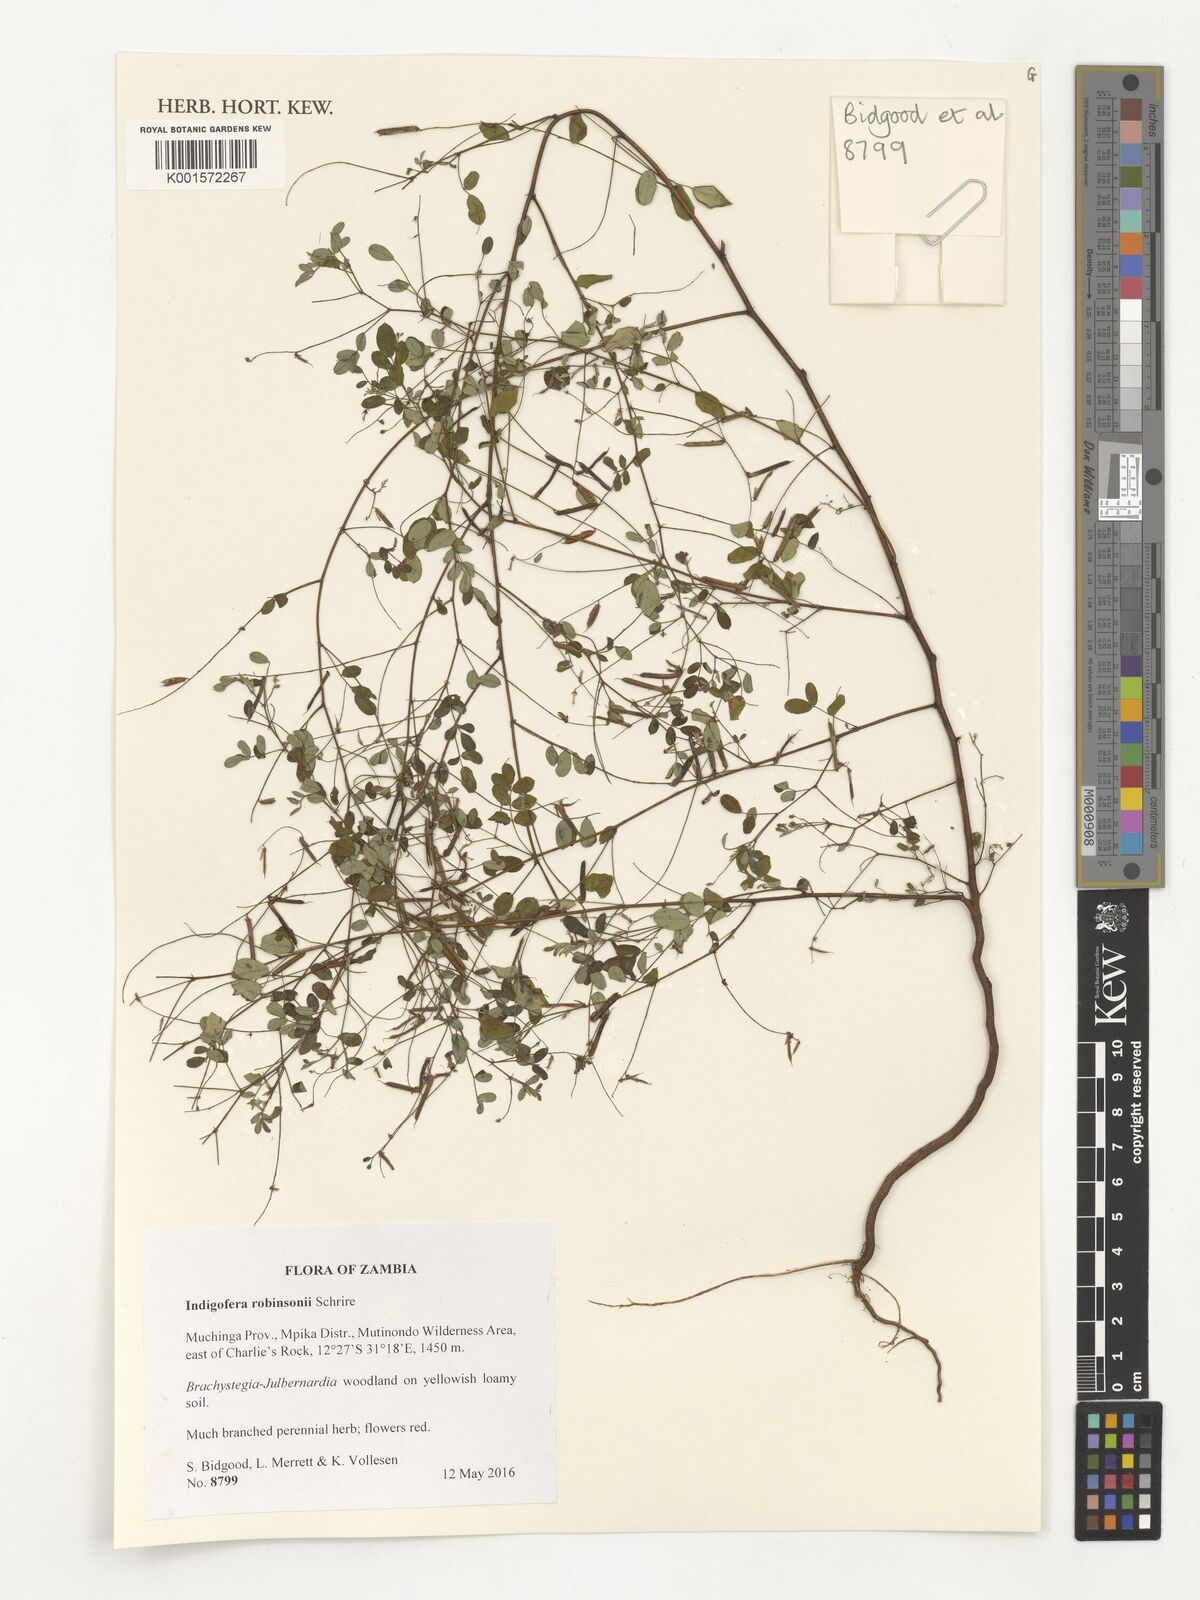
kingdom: Plantae
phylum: Tracheophyta
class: Magnoliopsida
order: Fabales
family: Fabaceae
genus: Indigofera
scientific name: Indigofera robinsonii
